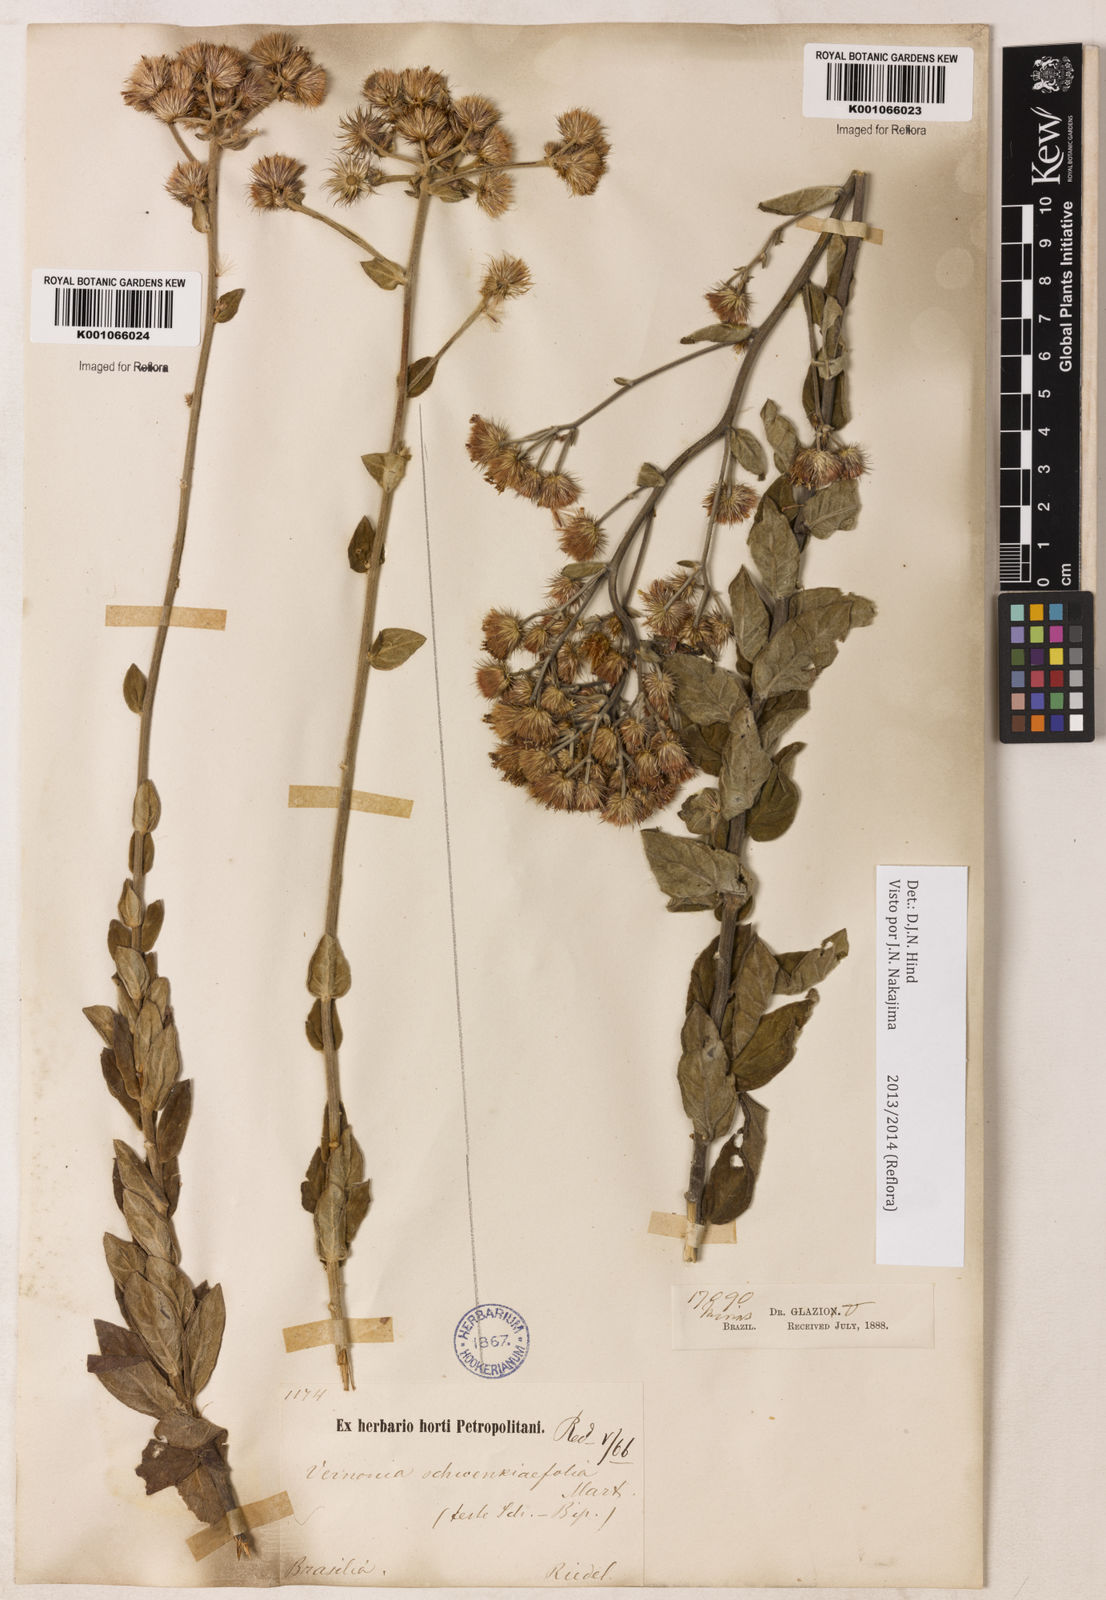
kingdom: Plantae
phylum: Tracheophyta
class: Magnoliopsida
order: Asterales
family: Asteraceae
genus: Vernonia
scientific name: Vernonia
